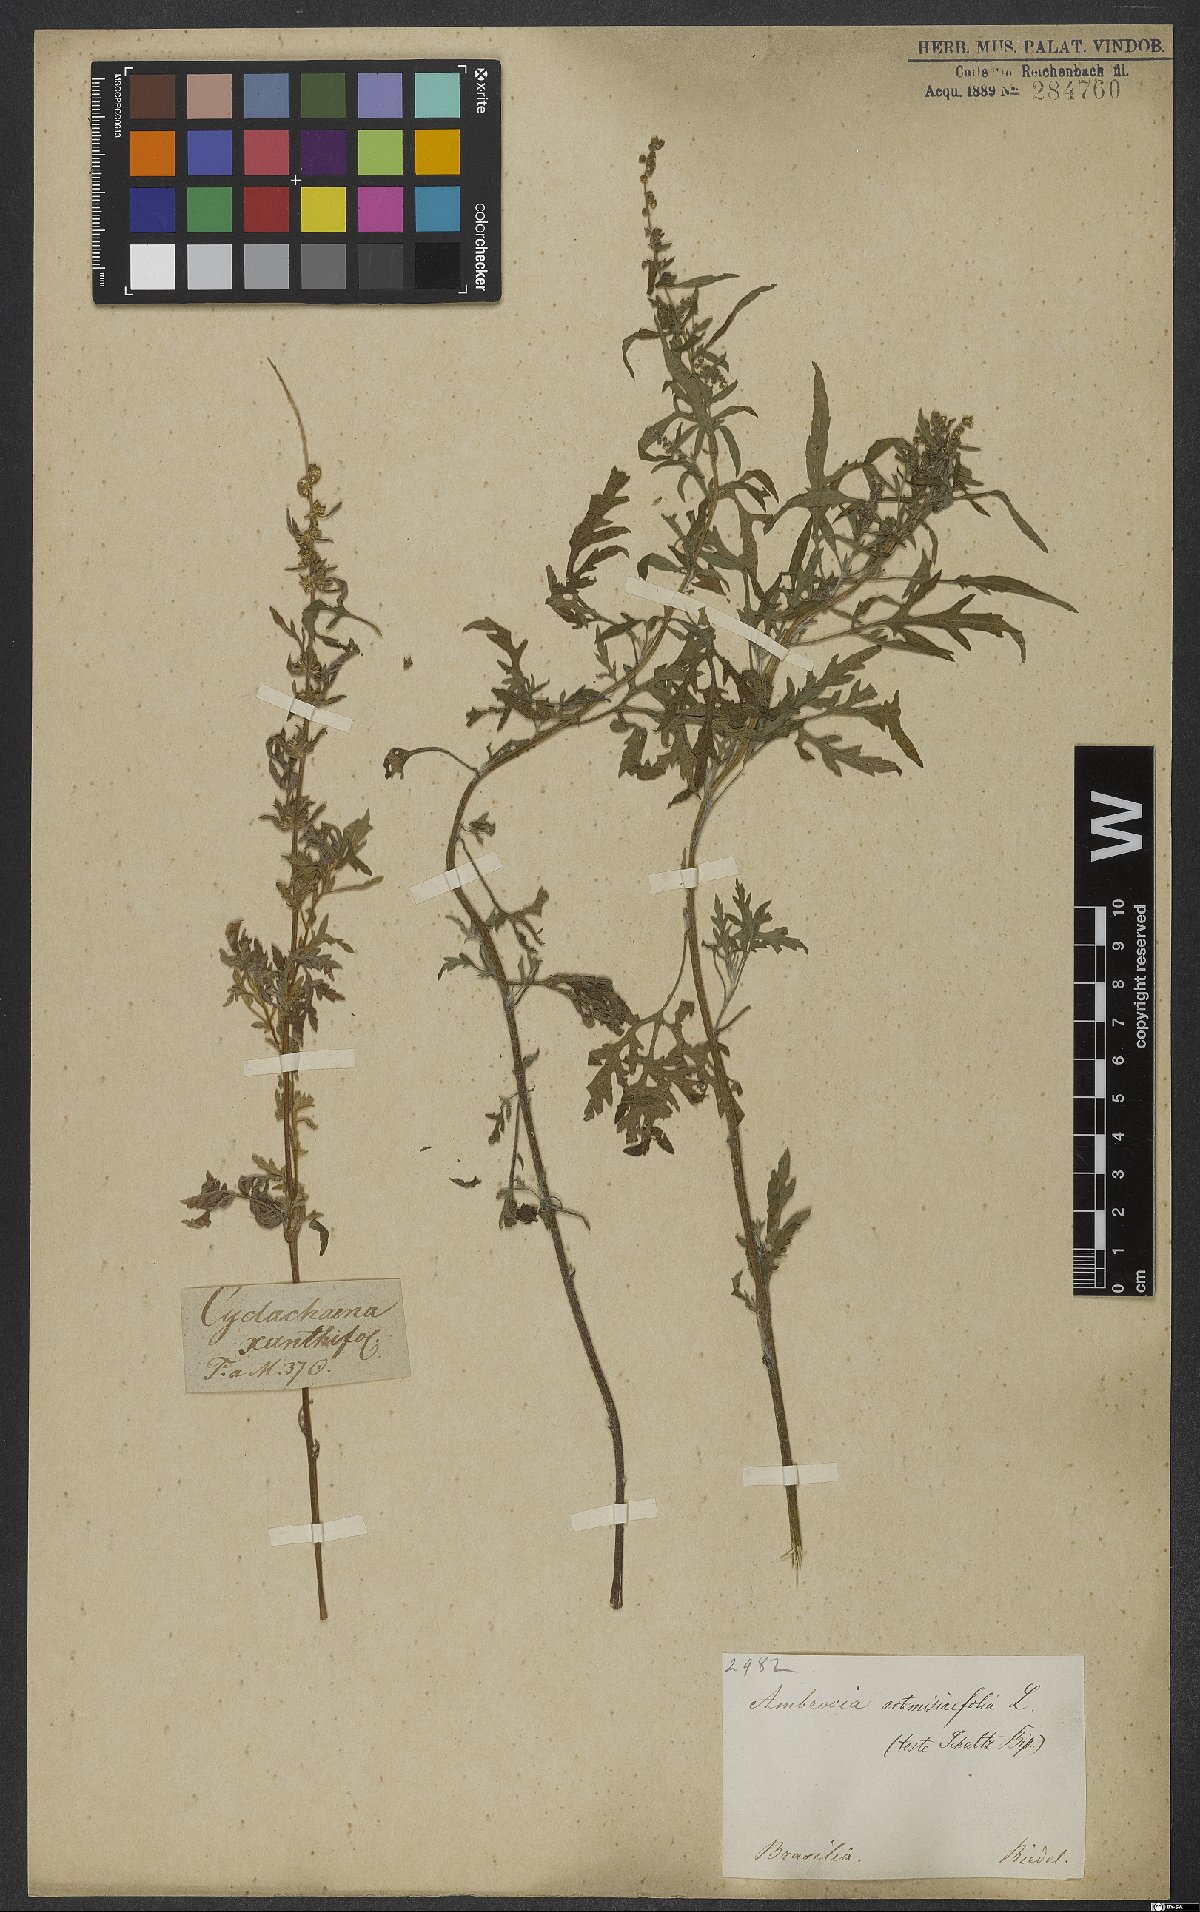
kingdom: Plantae
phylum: Tracheophyta
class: Magnoliopsida
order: Asterales
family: Asteraceae
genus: Ambrosia
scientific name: Ambrosia artemisiifolia
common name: Annual ragweed
